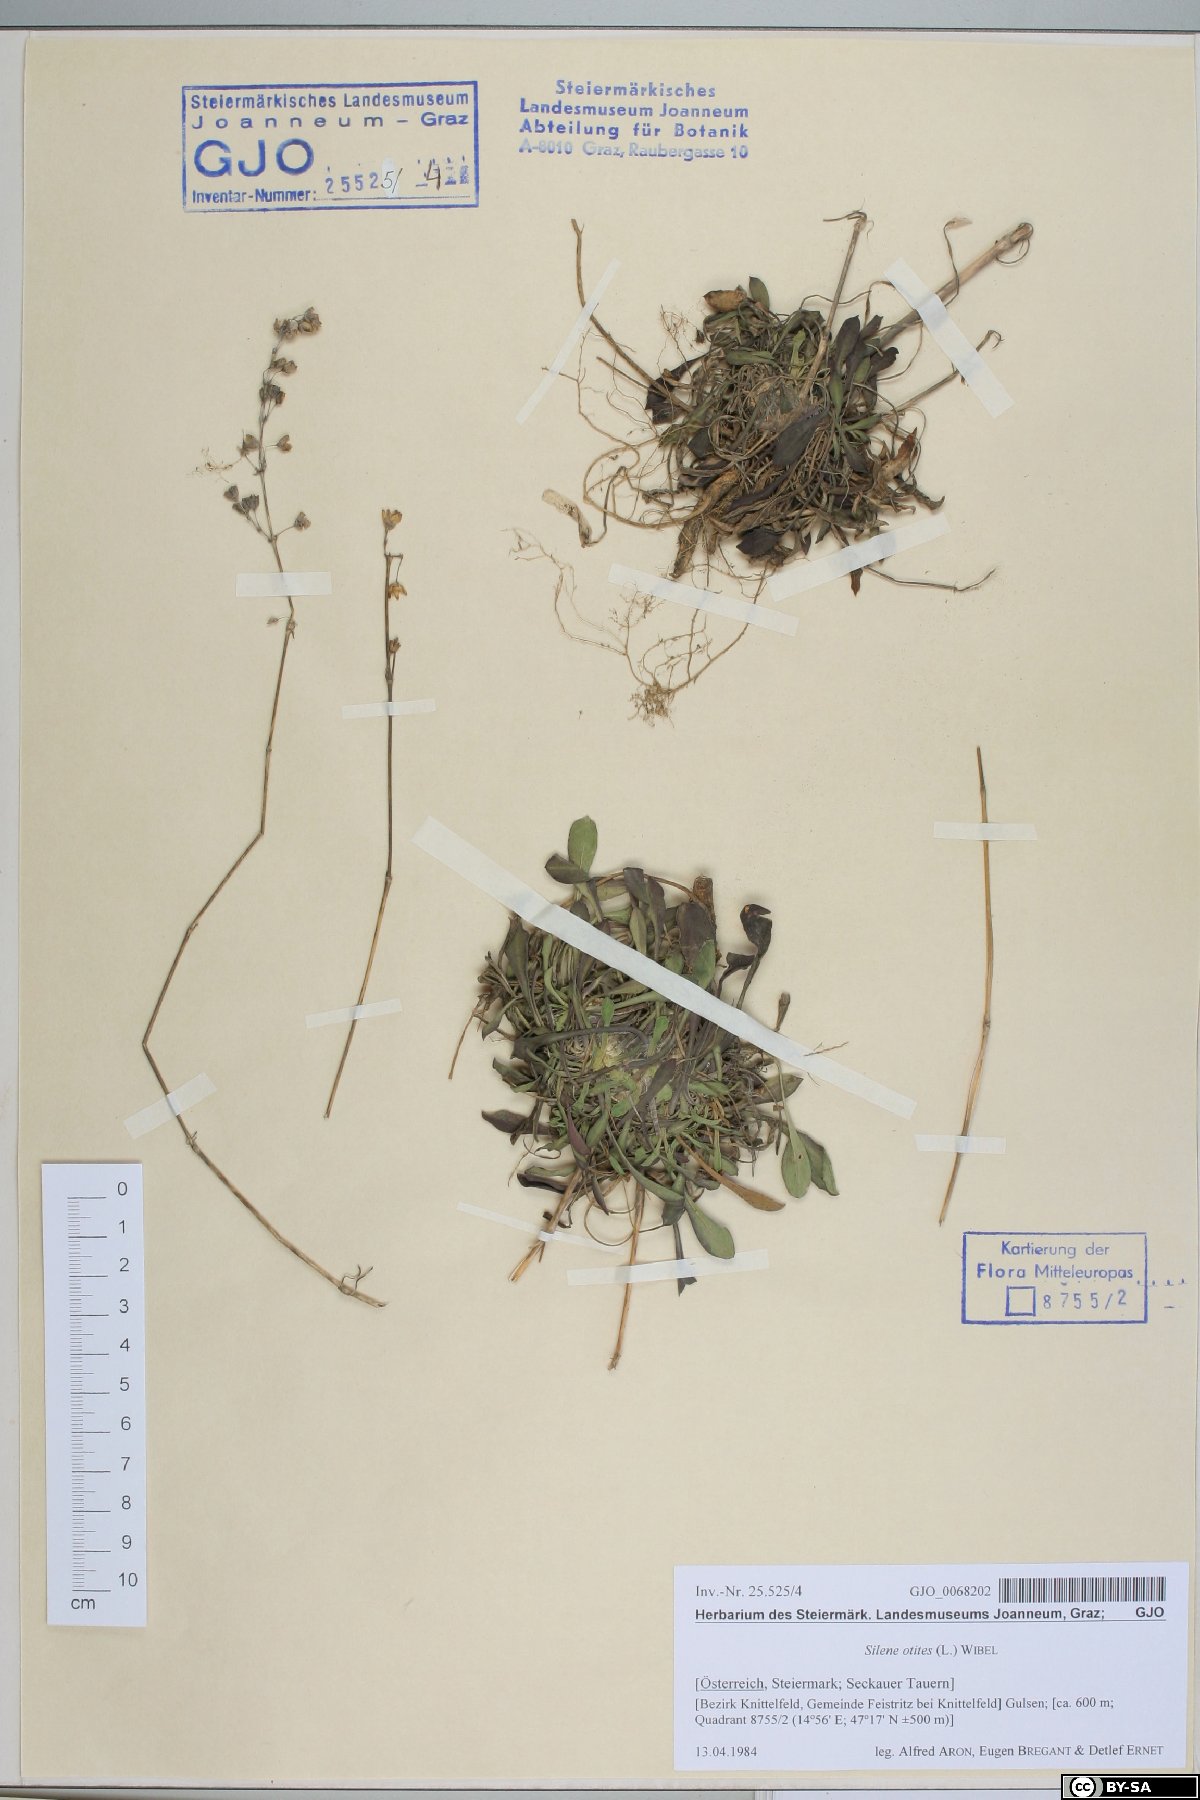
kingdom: Plantae
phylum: Tracheophyta
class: Magnoliopsida
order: Caryophyllales
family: Caryophyllaceae
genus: Silene
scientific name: Silene otites
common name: Spanish catchfly
